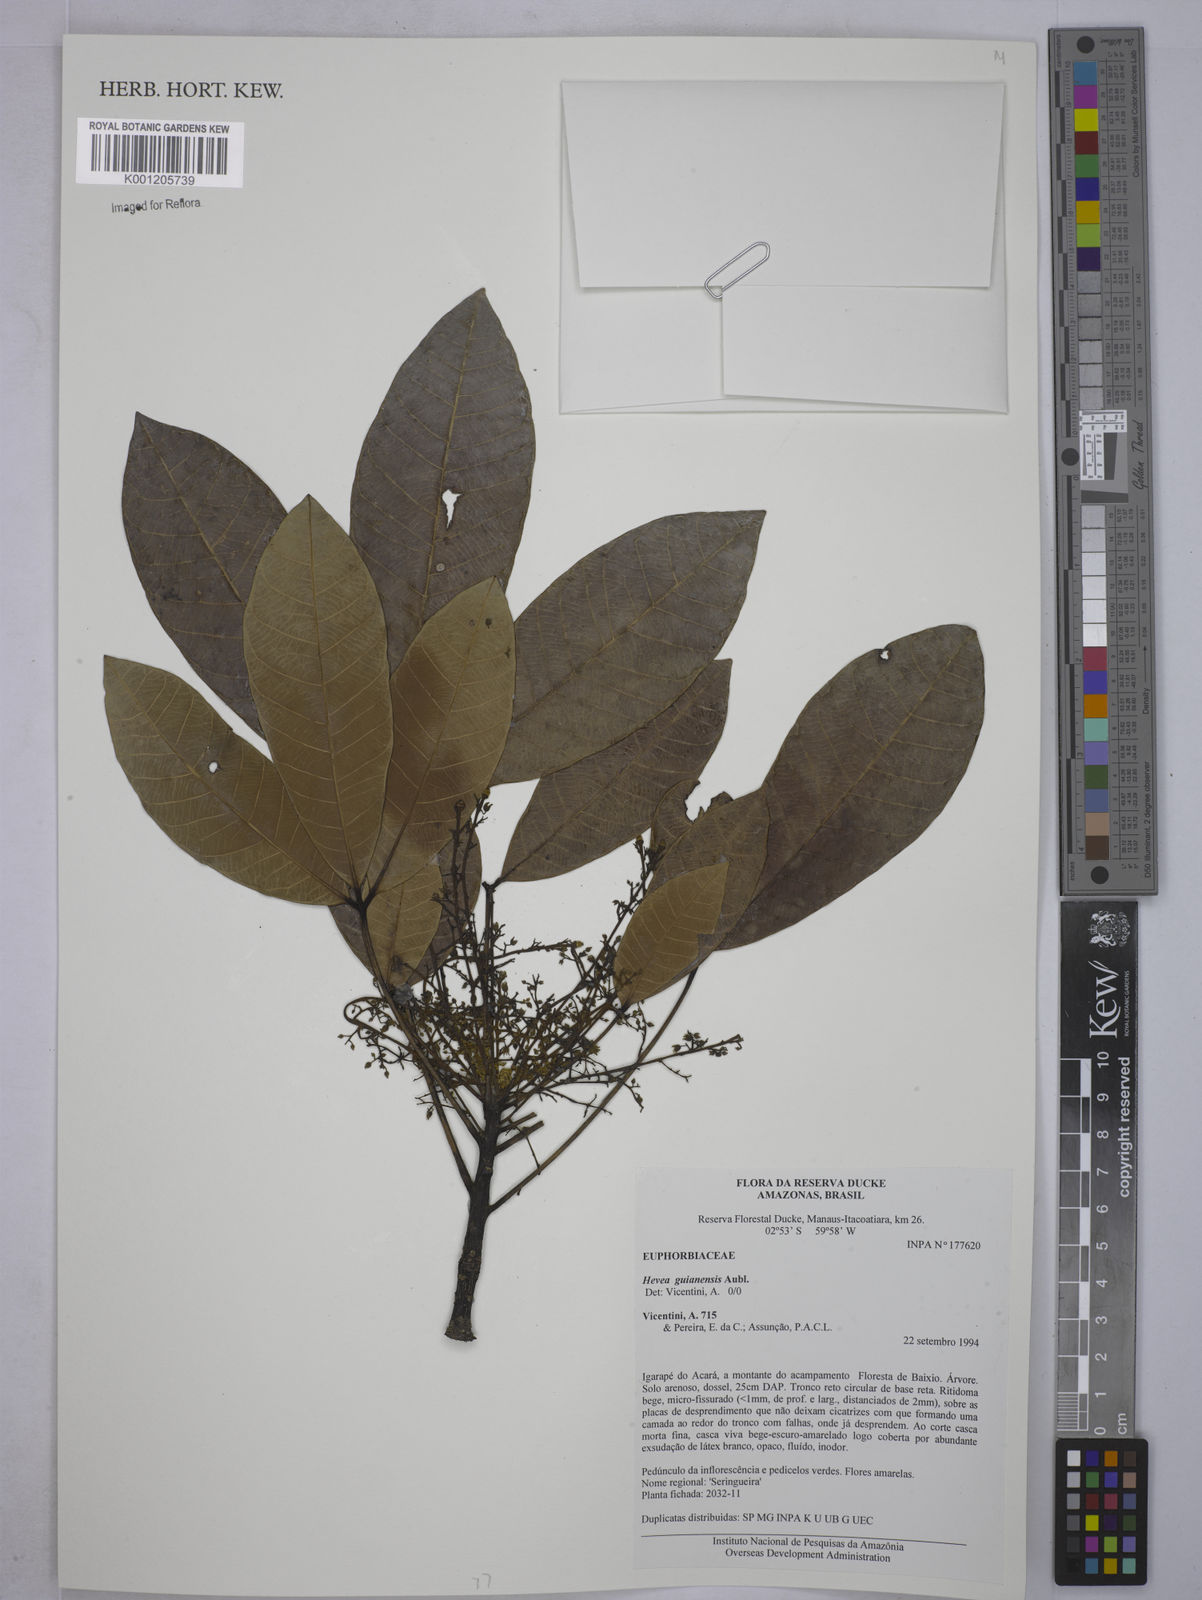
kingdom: Plantae
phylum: Tracheophyta
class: Magnoliopsida
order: Malpighiales
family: Euphorbiaceae
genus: Hevea
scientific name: Hevea guianensis
